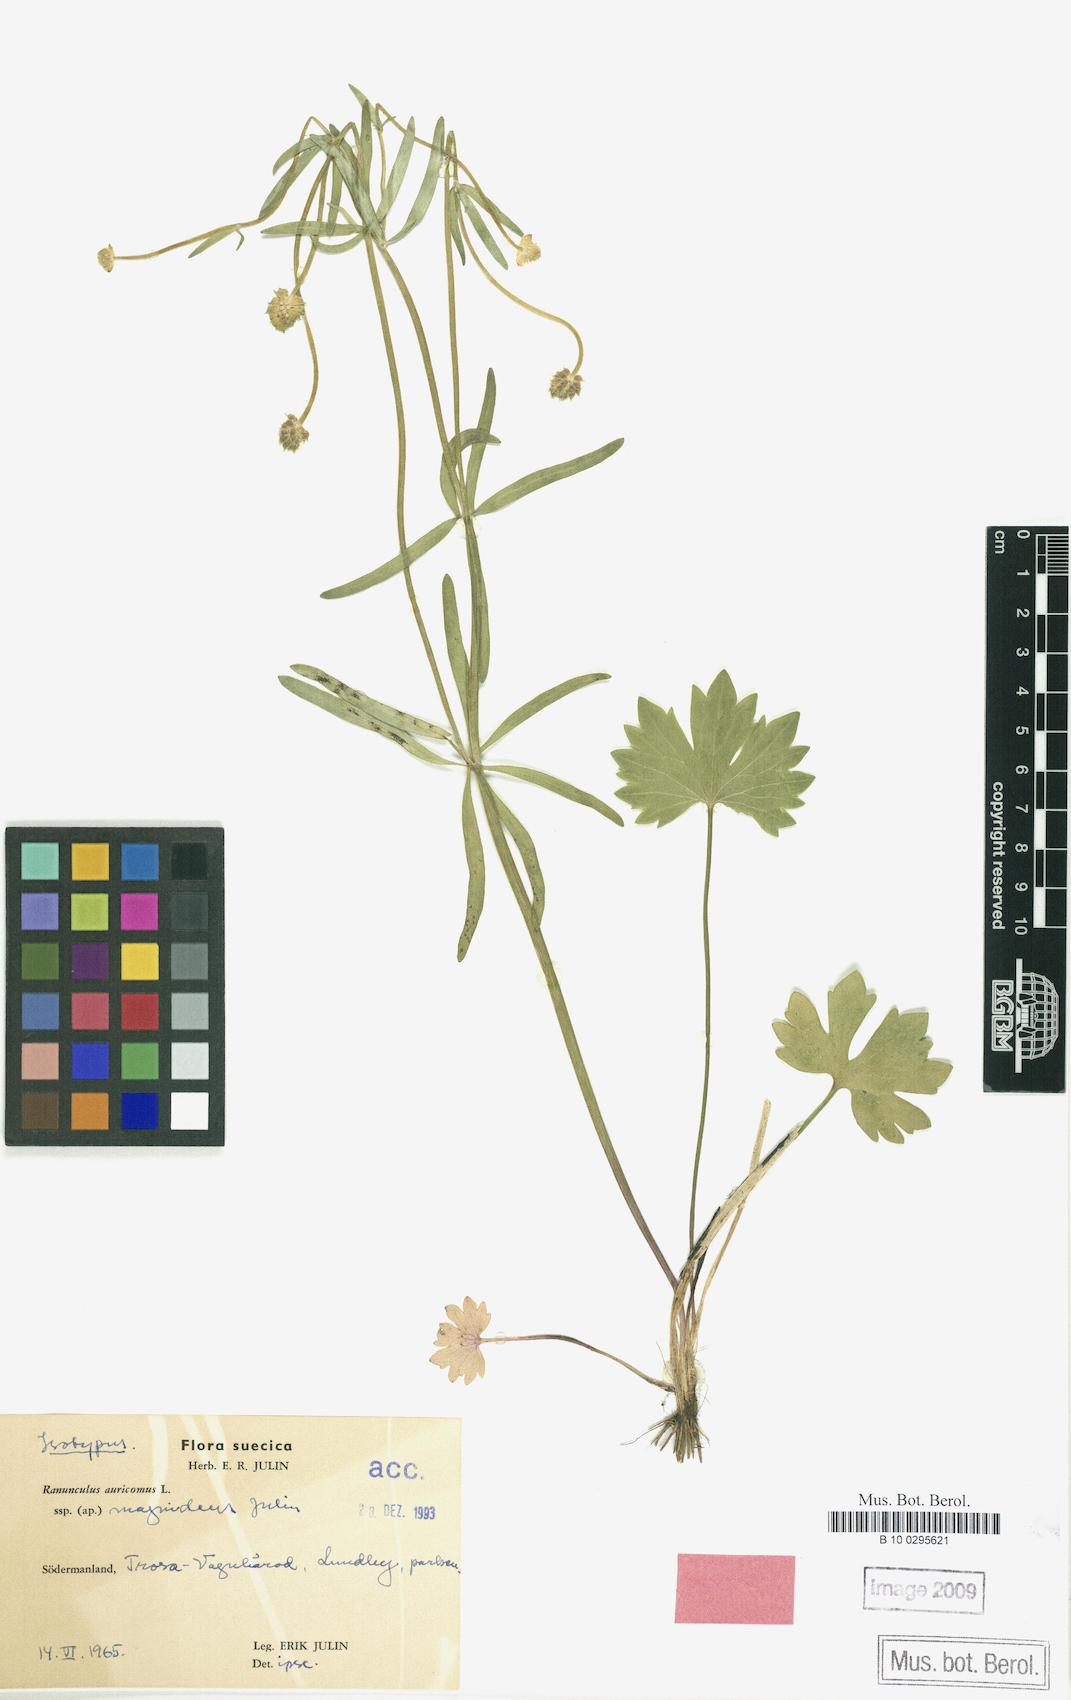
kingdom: Plantae
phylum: Tracheophyta
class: Magnoliopsida
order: Ranunculales
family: Ranunculaceae
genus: Ranunculus
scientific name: Ranunculus magnidens
